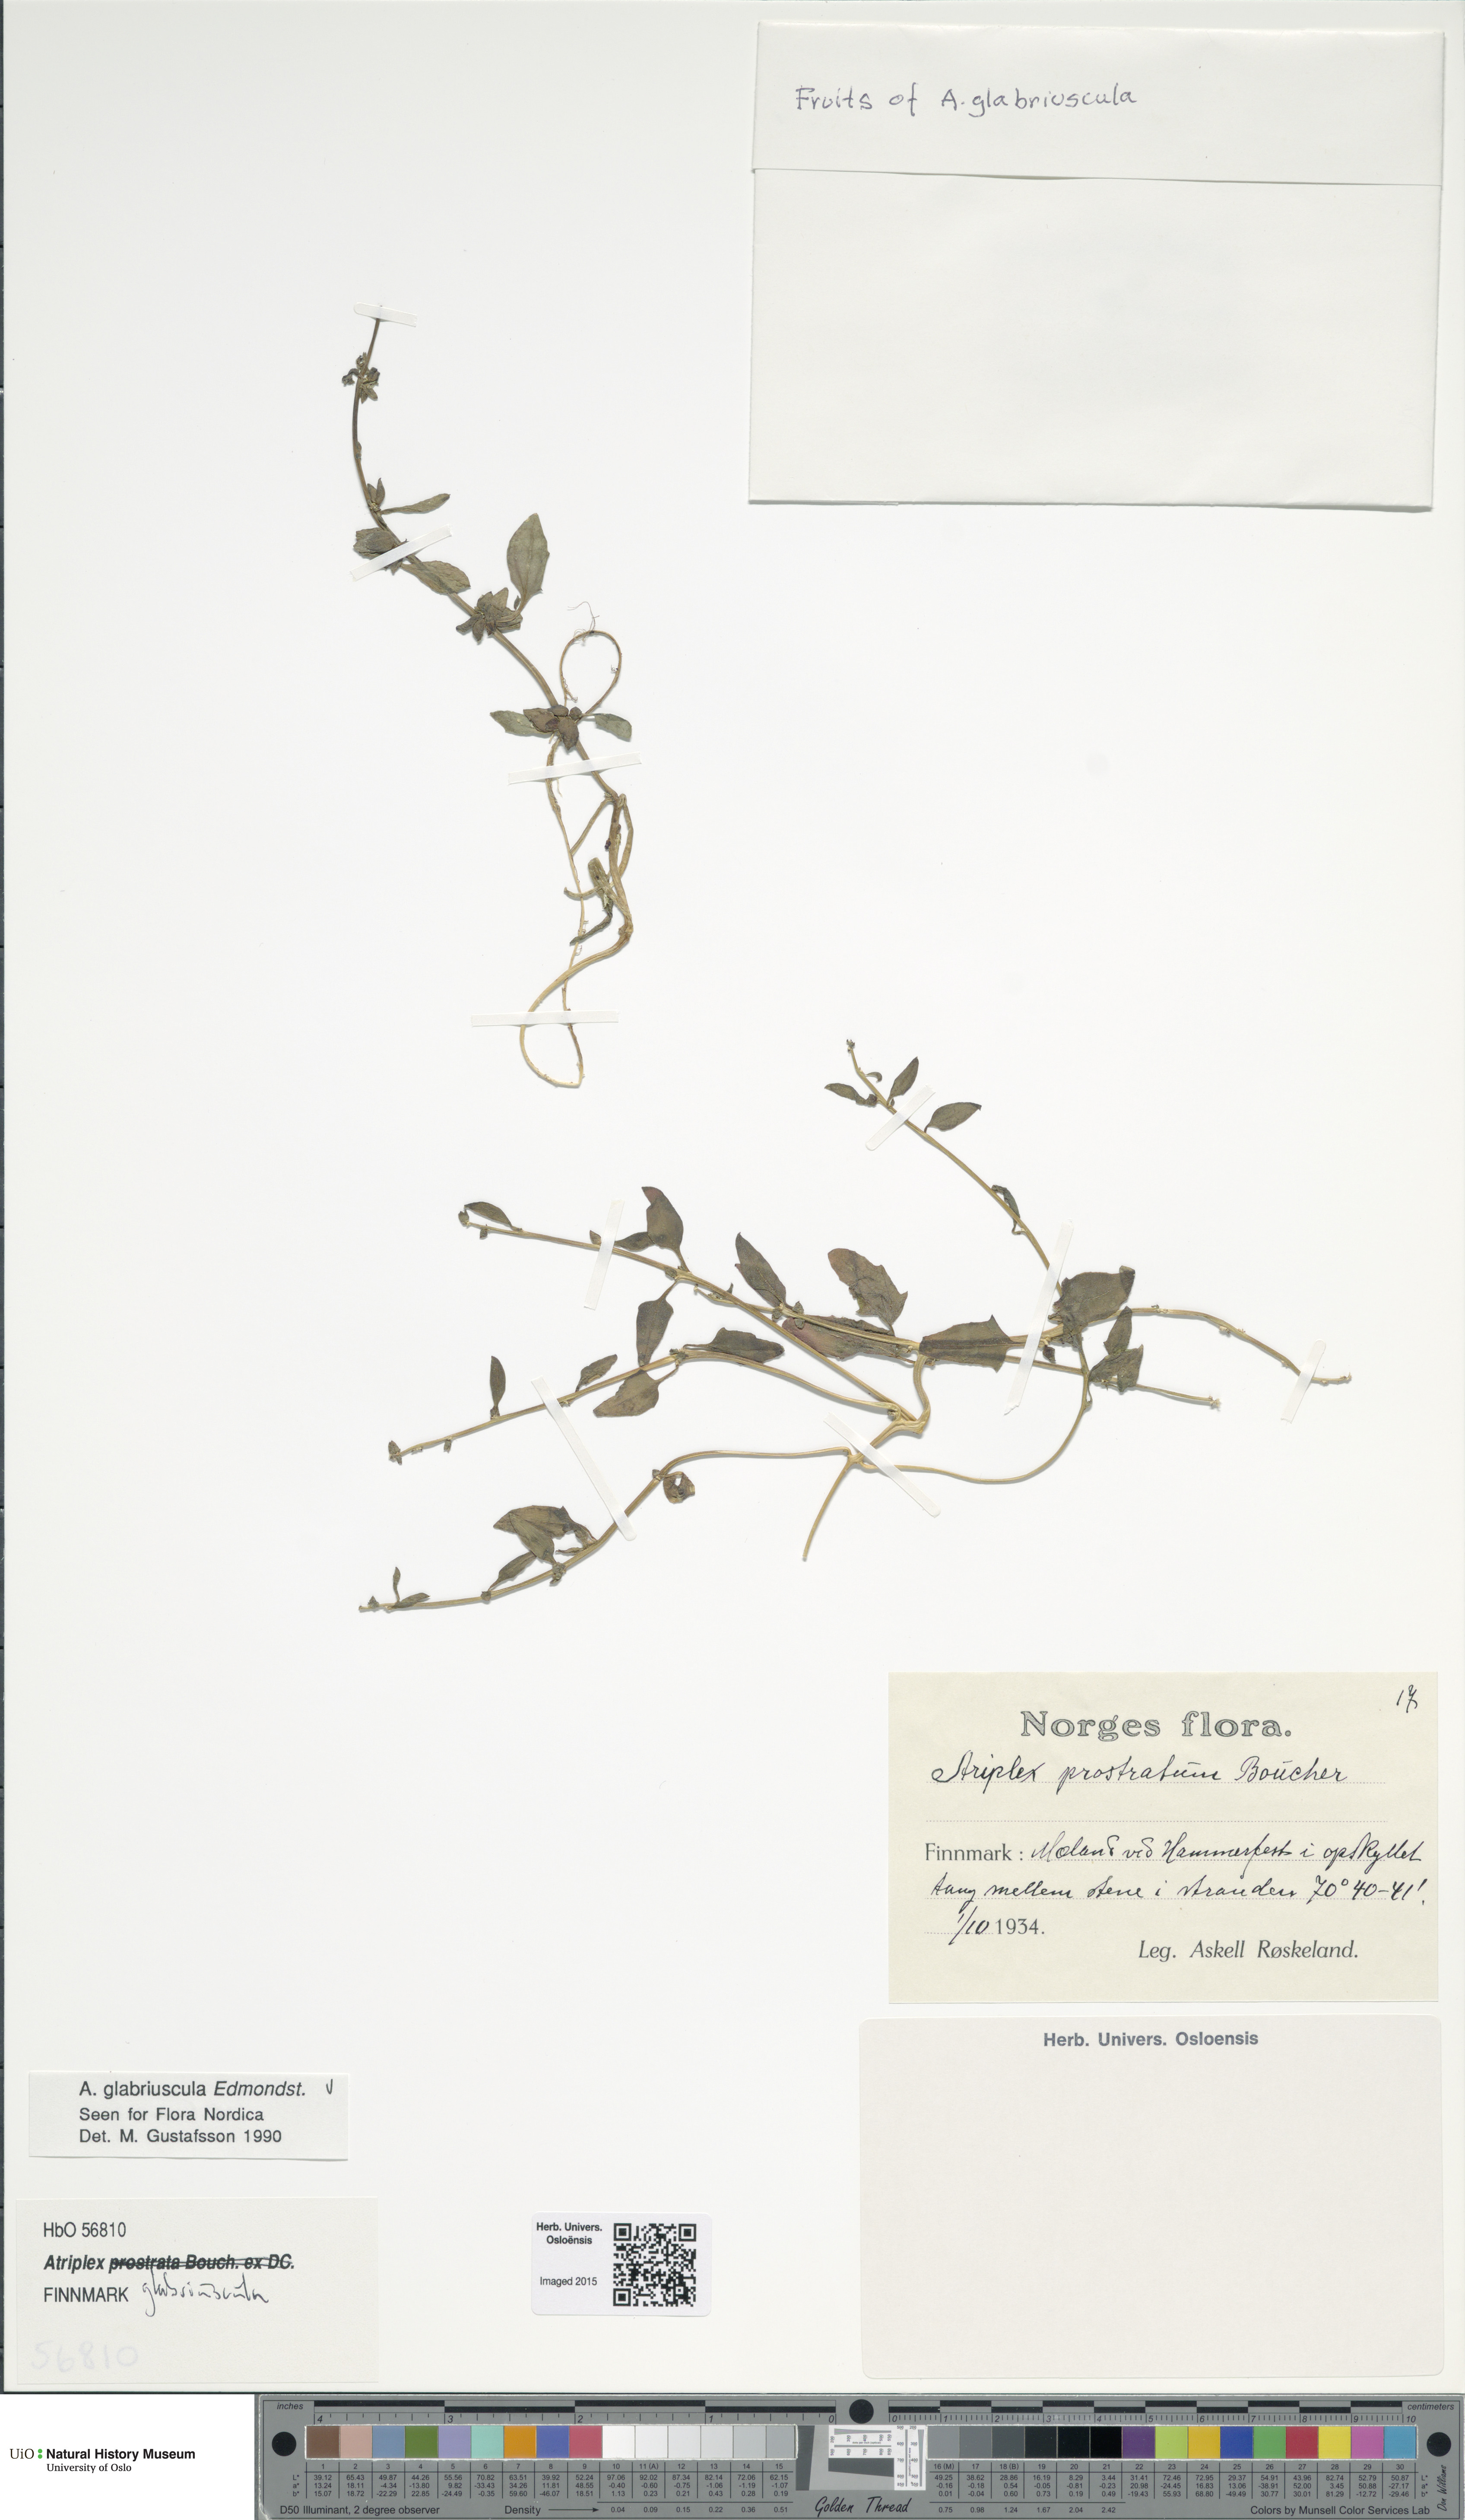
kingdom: Plantae
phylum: Tracheophyta
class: Magnoliopsida
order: Caryophyllales
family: Amaranthaceae
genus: Atriplex
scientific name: Atriplex glabriuscula
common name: Babington's orache
